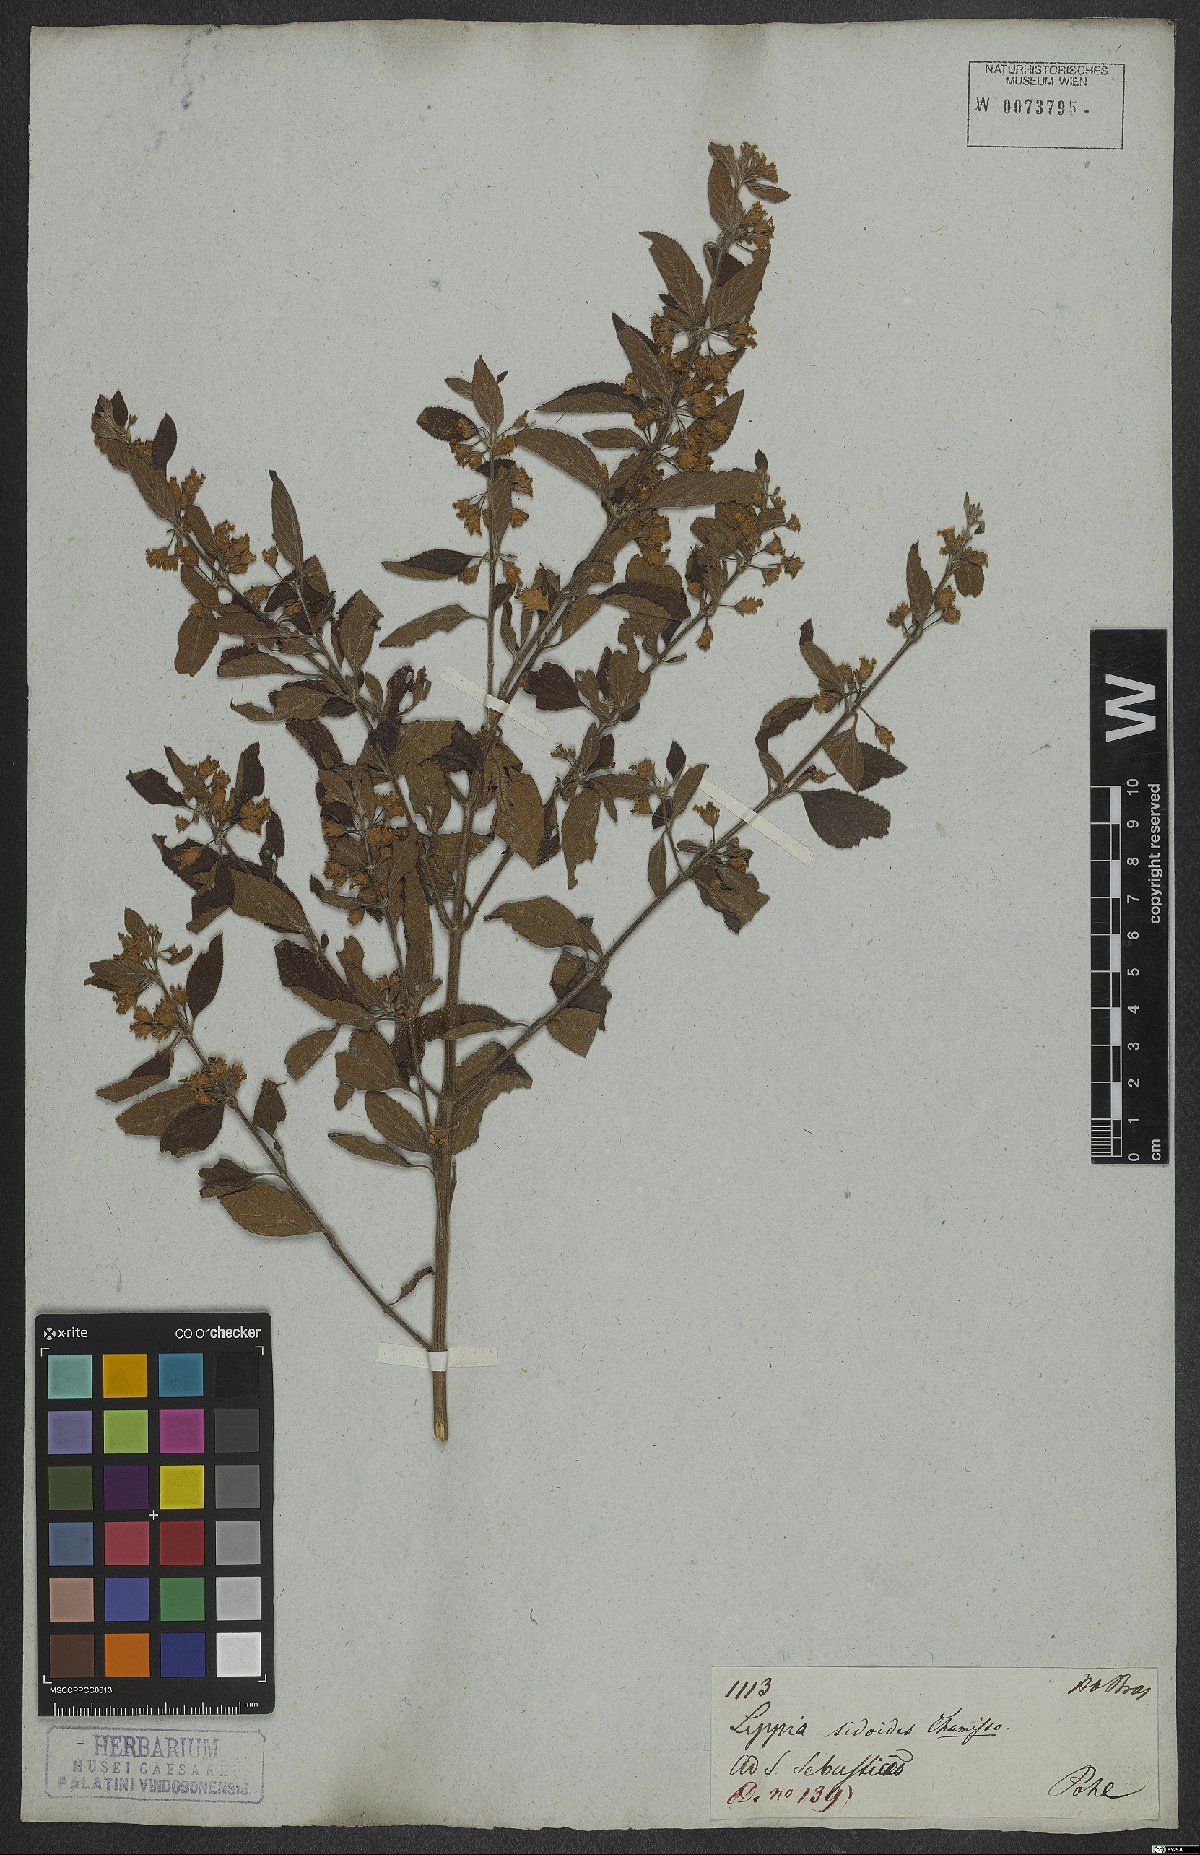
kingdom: Plantae
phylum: Tracheophyta
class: Magnoliopsida
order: Lamiales
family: Verbenaceae
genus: Lippia
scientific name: Lippia origanoides
